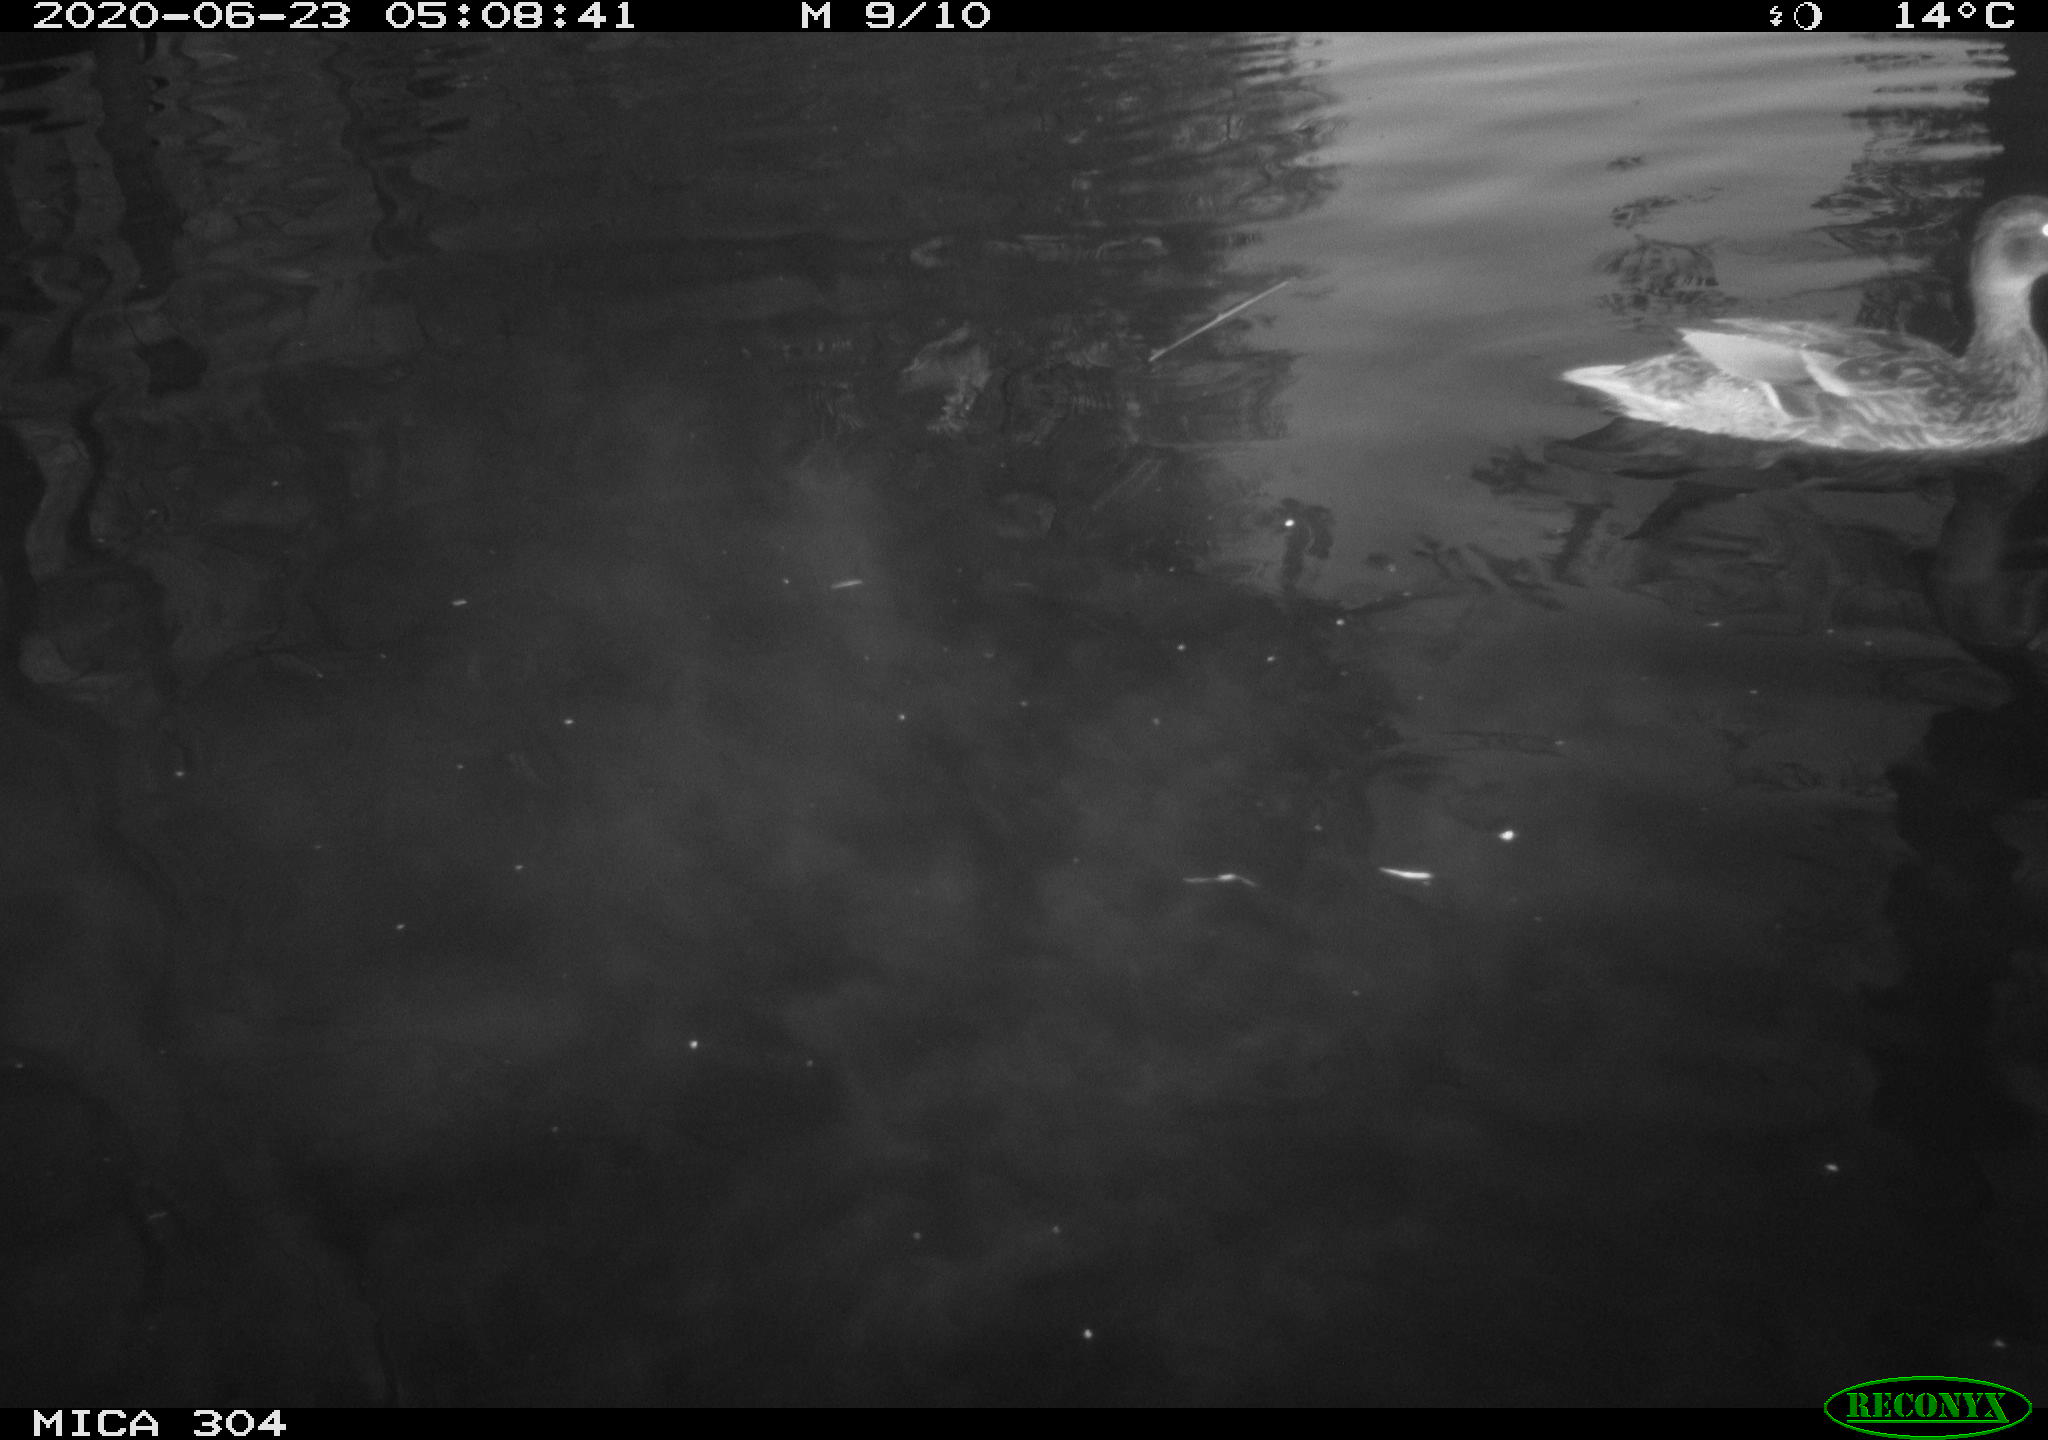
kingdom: Animalia
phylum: Chordata
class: Aves
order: Anseriformes
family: Anatidae
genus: Anas
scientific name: Anas platyrhynchos
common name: Mallard
